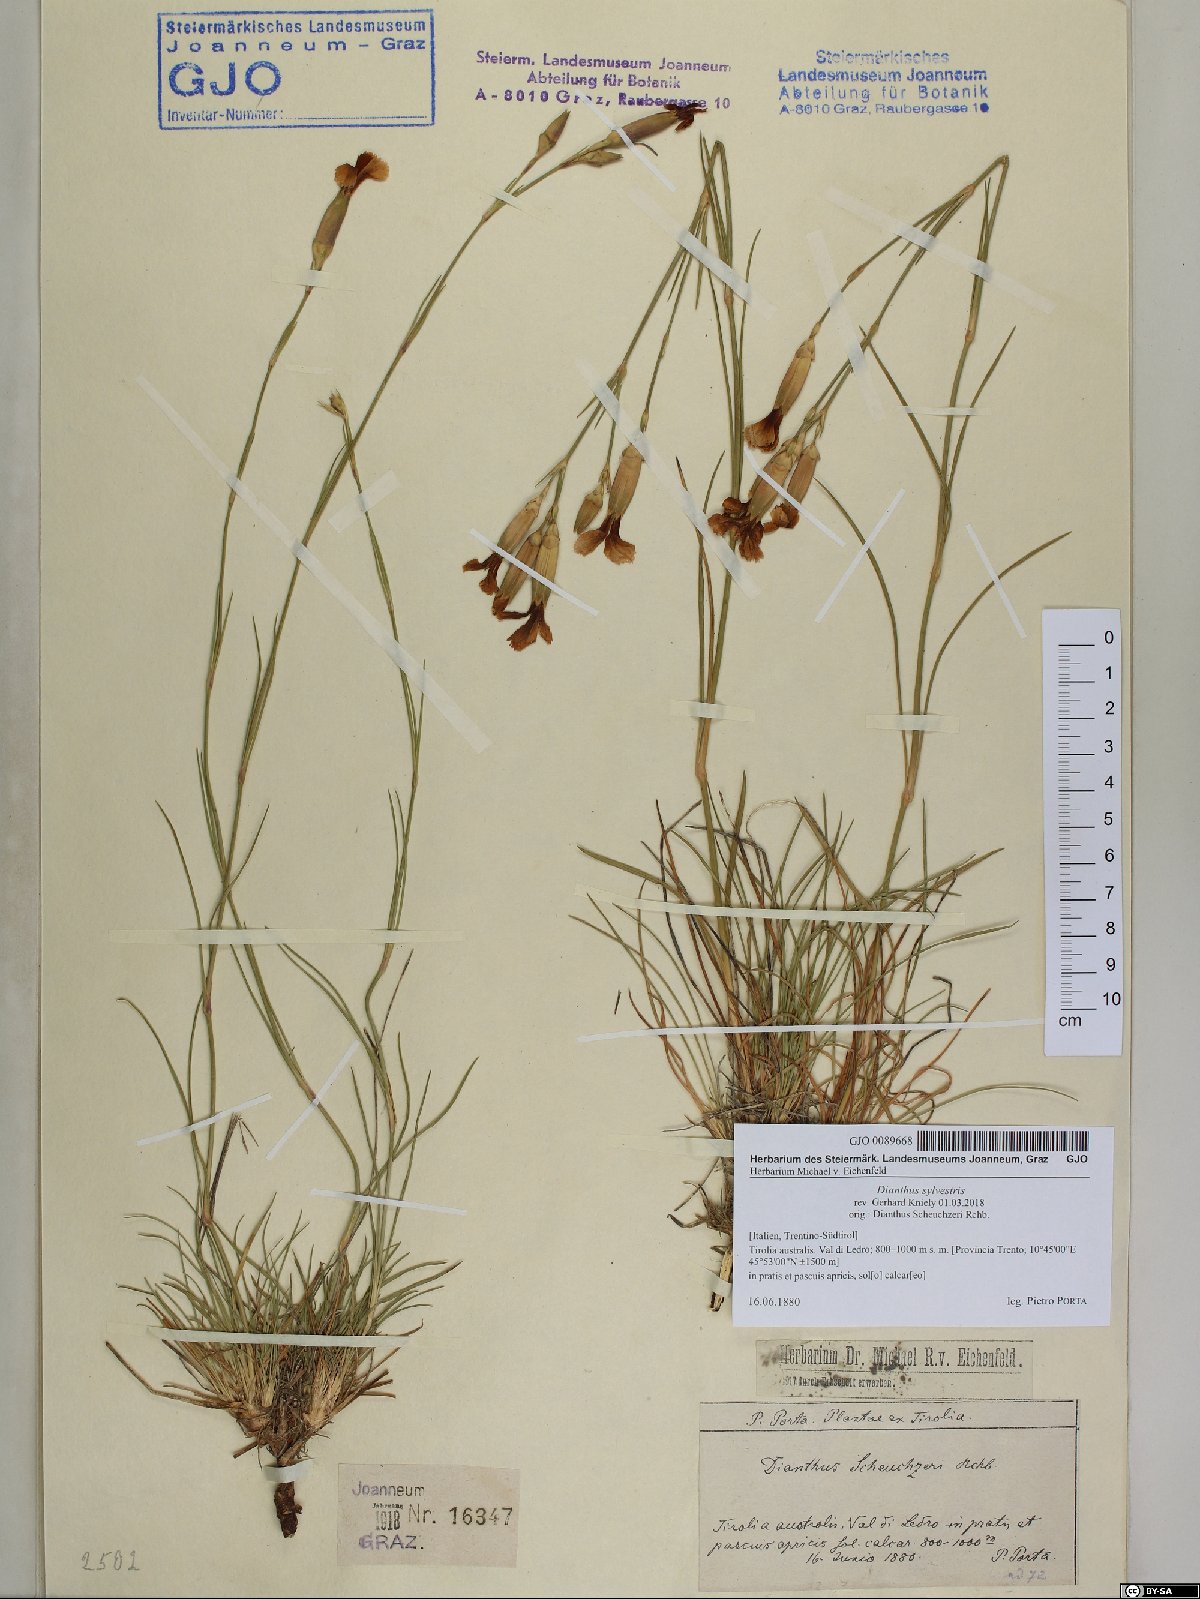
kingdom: Plantae
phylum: Tracheophyta
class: Magnoliopsida
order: Caryophyllales
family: Caryophyllaceae
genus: Dianthus
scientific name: Dianthus sylvestris
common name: Wood pink
